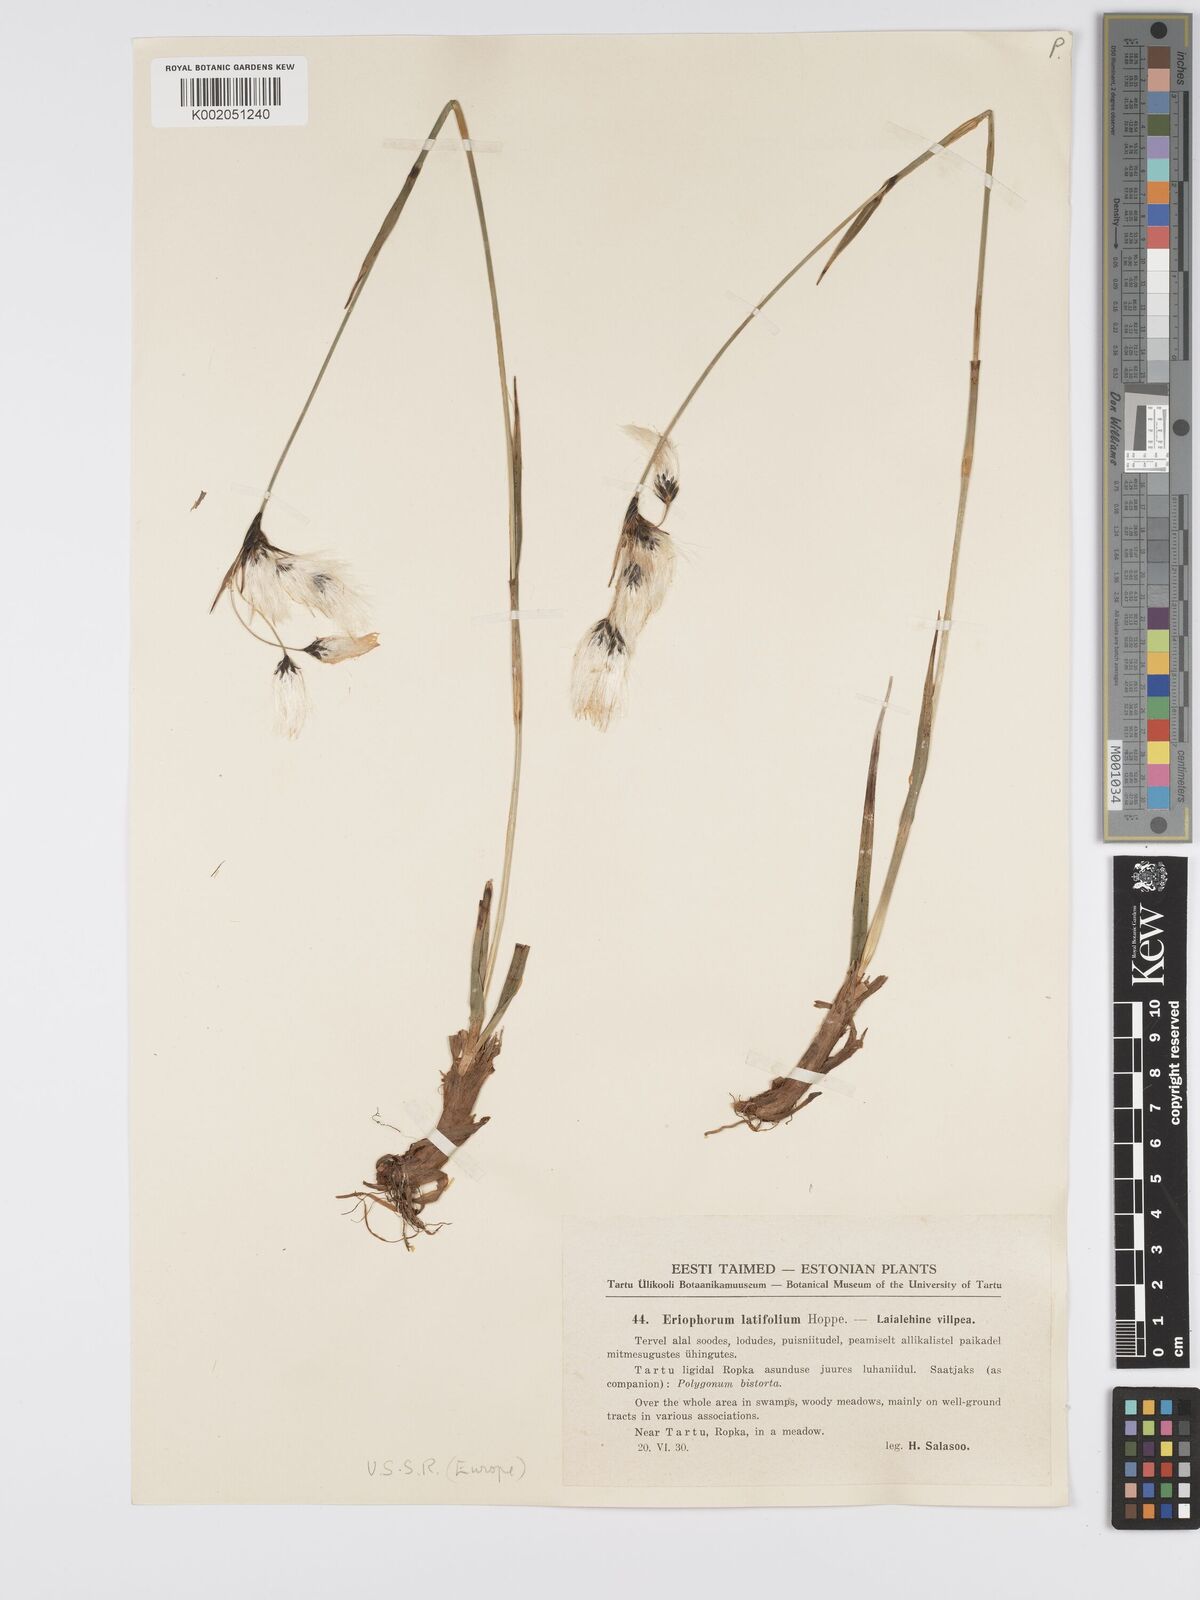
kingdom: Plantae
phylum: Tracheophyta
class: Liliopsida
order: Poales
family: Cyperaceae
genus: Eriophorum
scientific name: Eriophorum latifolium
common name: Broad-leaved cottongrass
